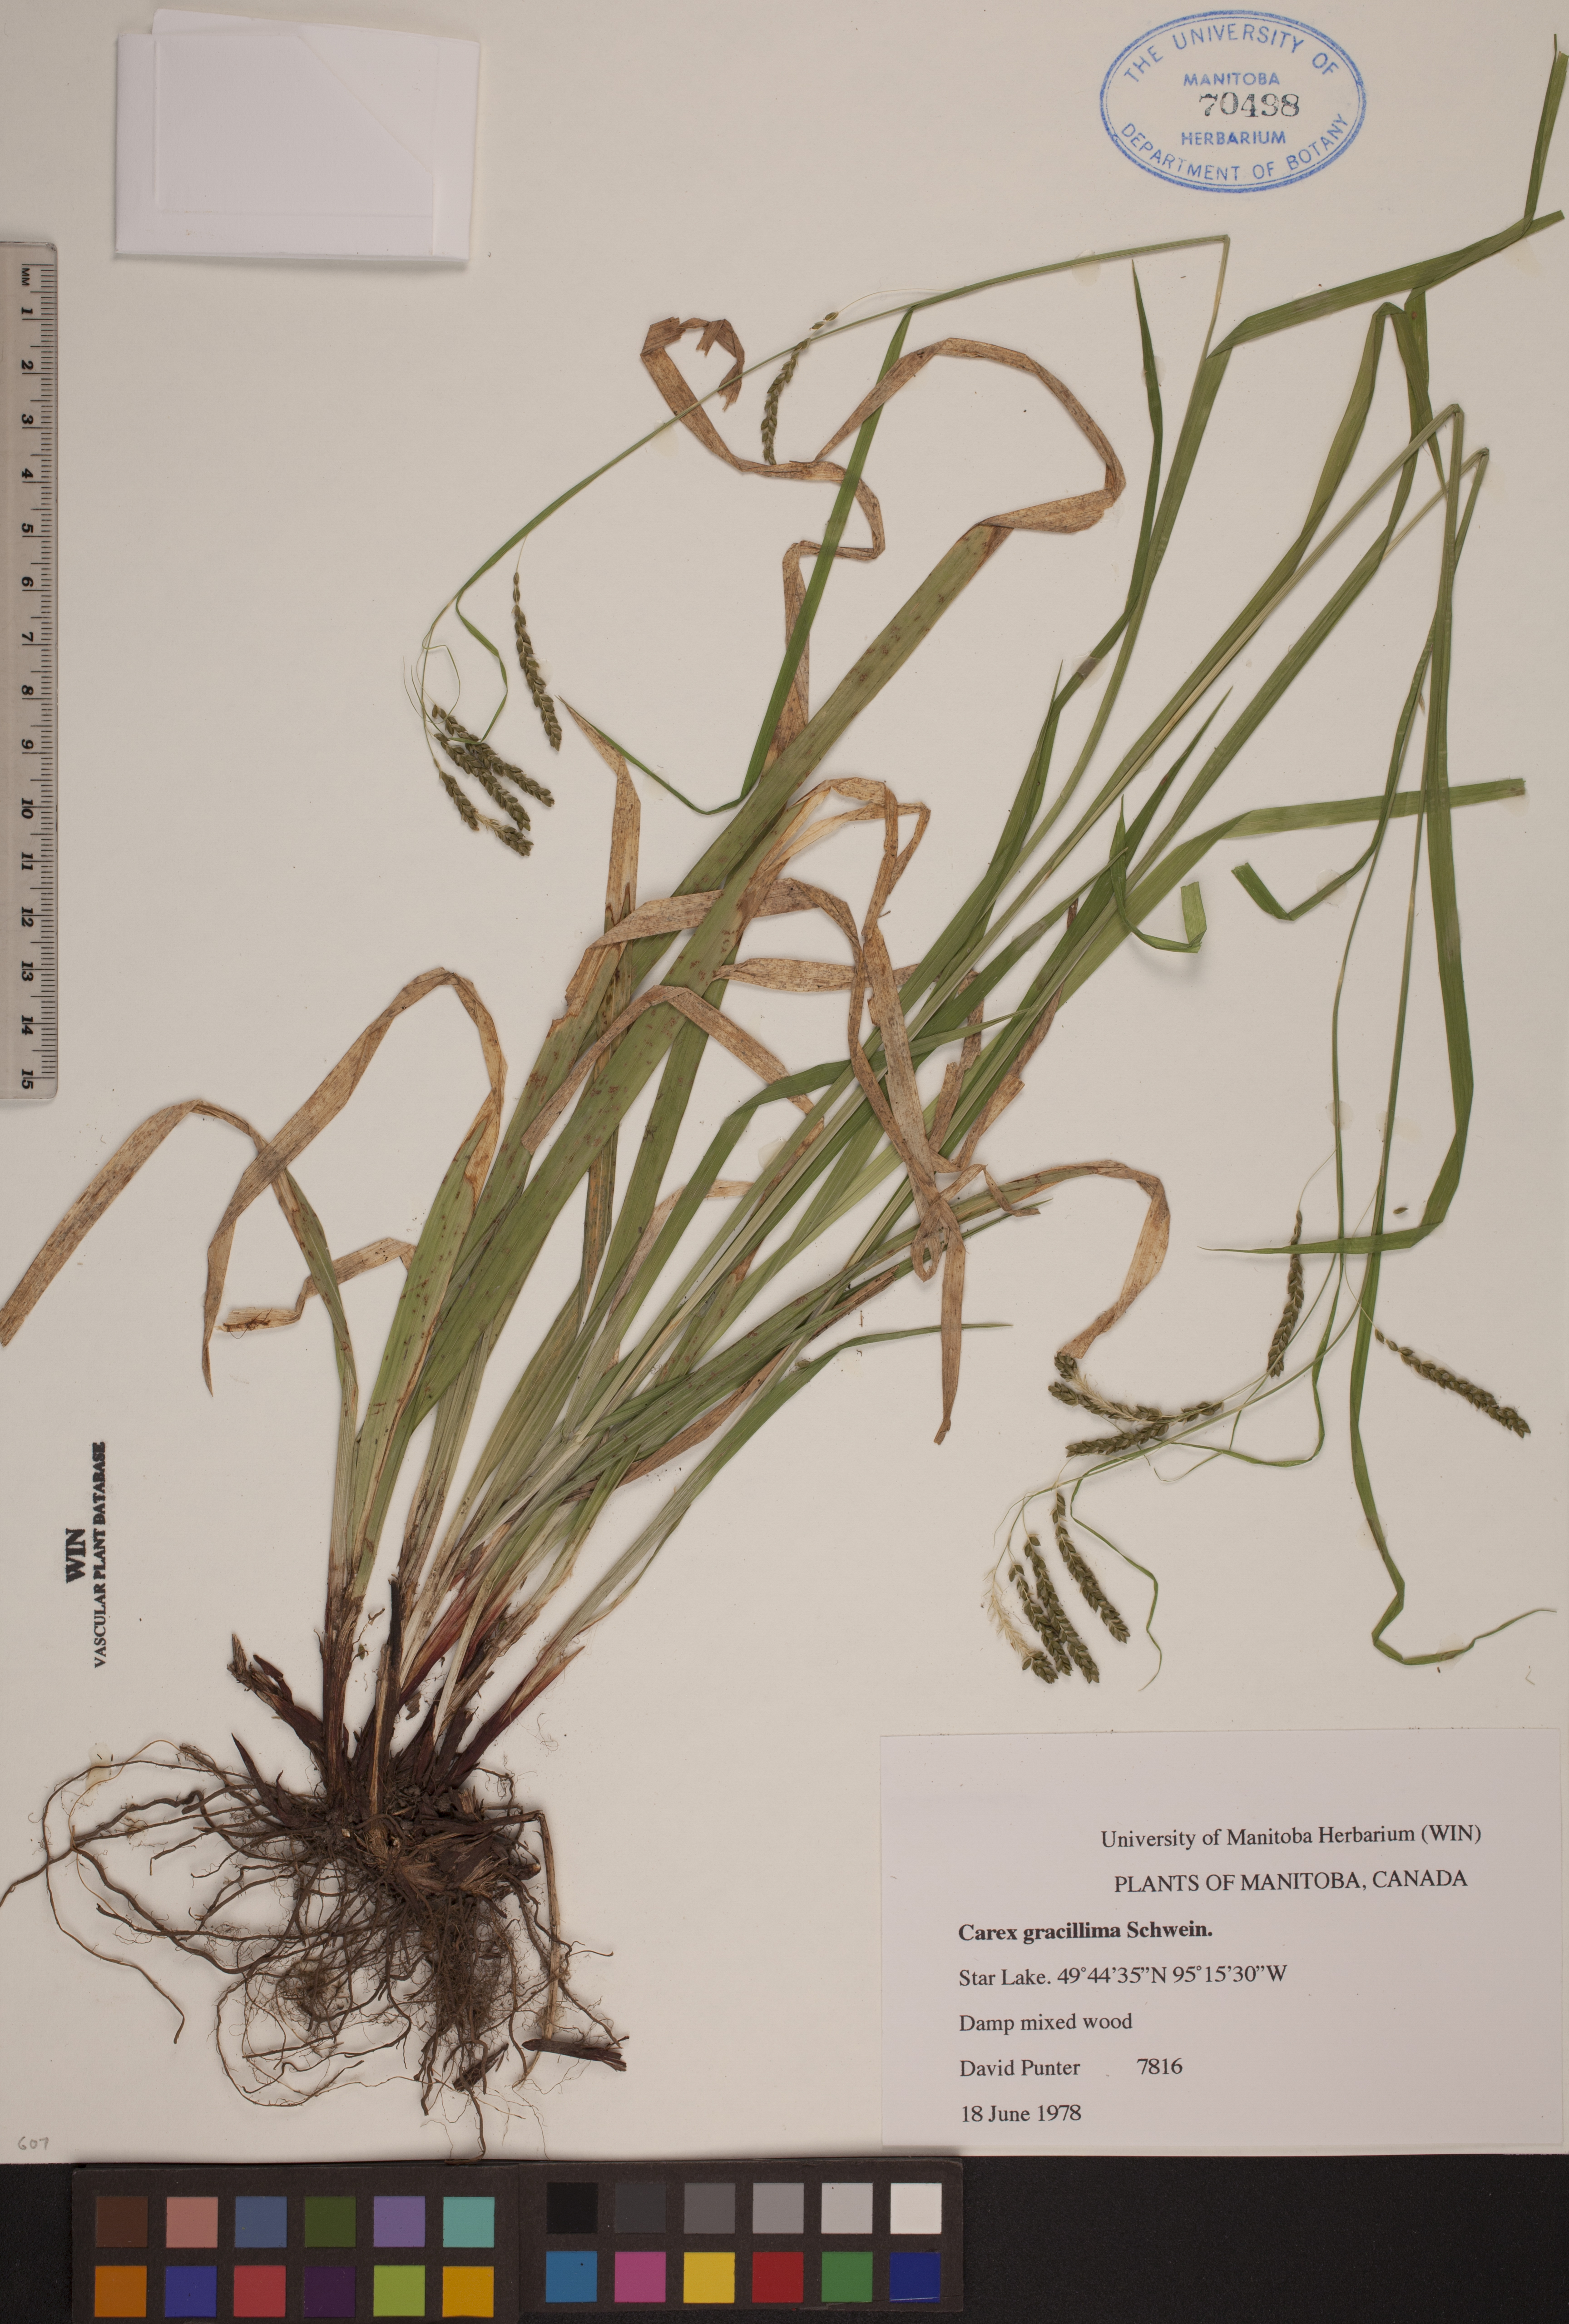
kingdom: Plantae
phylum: Tracheophyta
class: Liliopsida
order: Poales
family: Cyperaceae
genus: Carex
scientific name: Carex gracillima
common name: Graceful sedge
